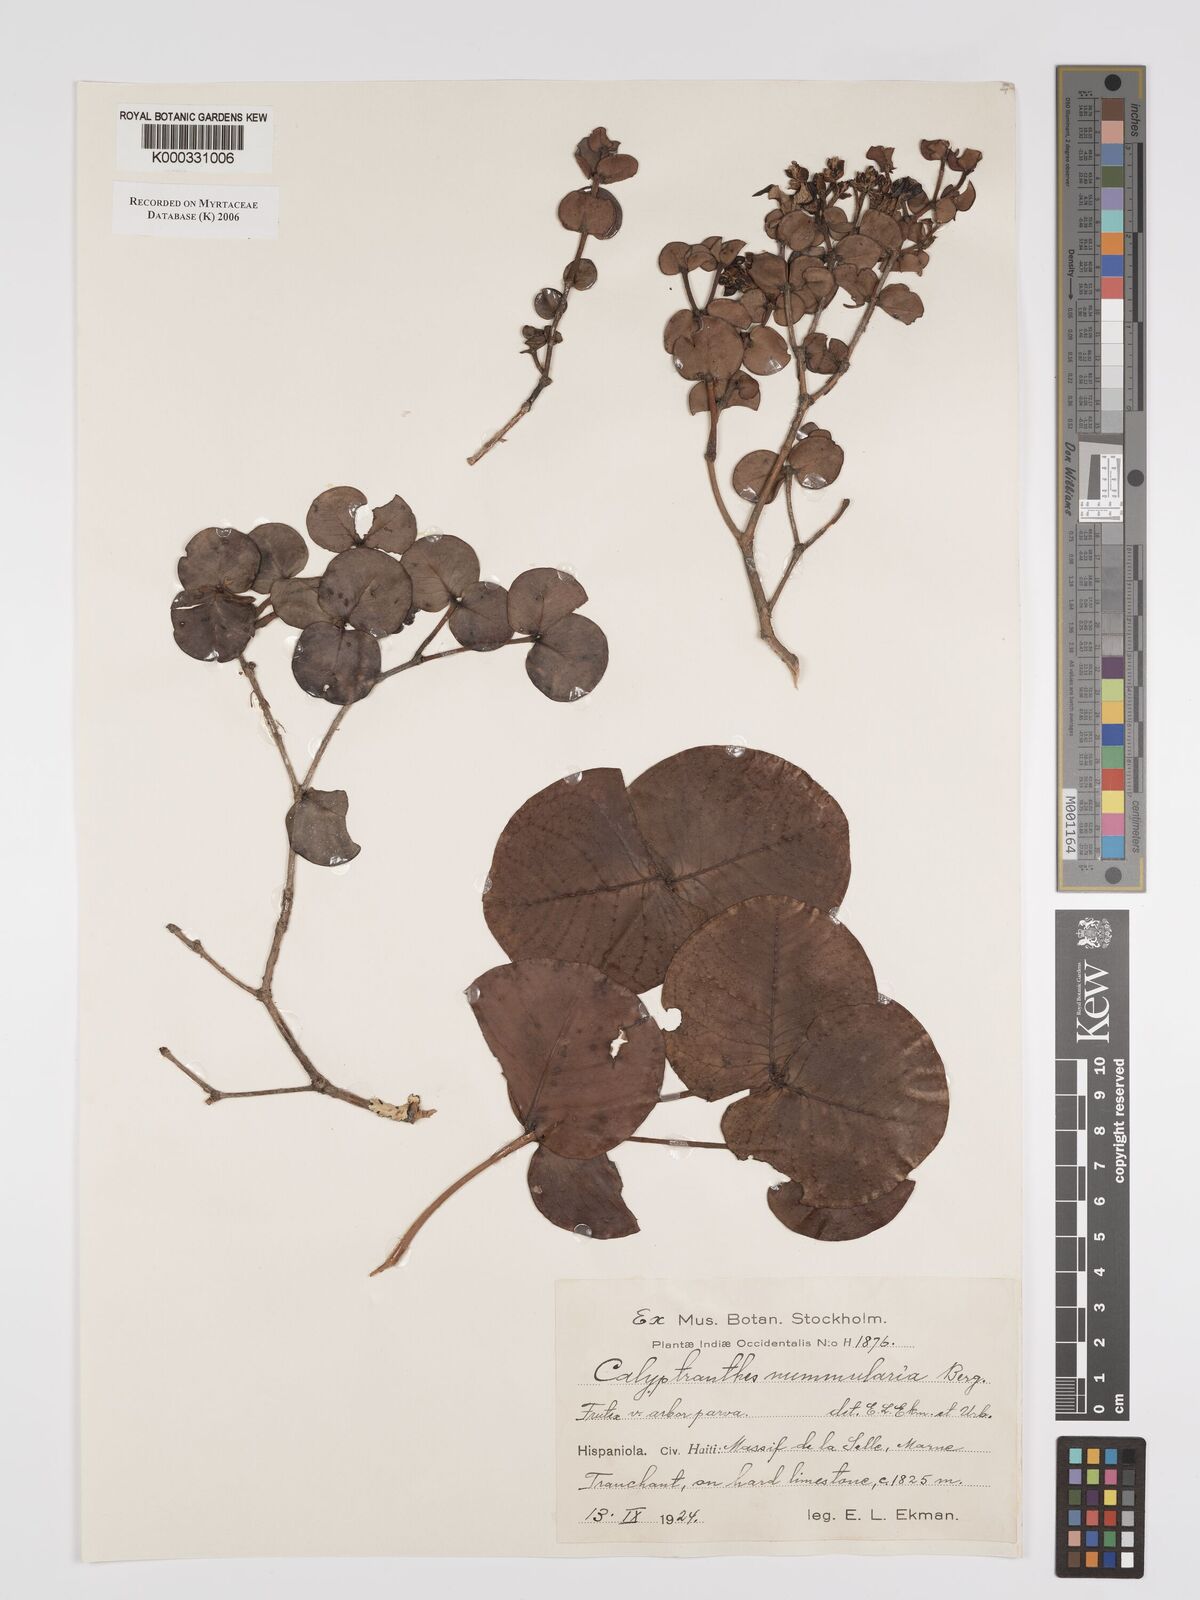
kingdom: Plantae
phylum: Tracheophyta
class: Magnoliopsida
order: Myrtales
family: Myrtaceae
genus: Myrcia
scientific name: Myrcia nummularia
